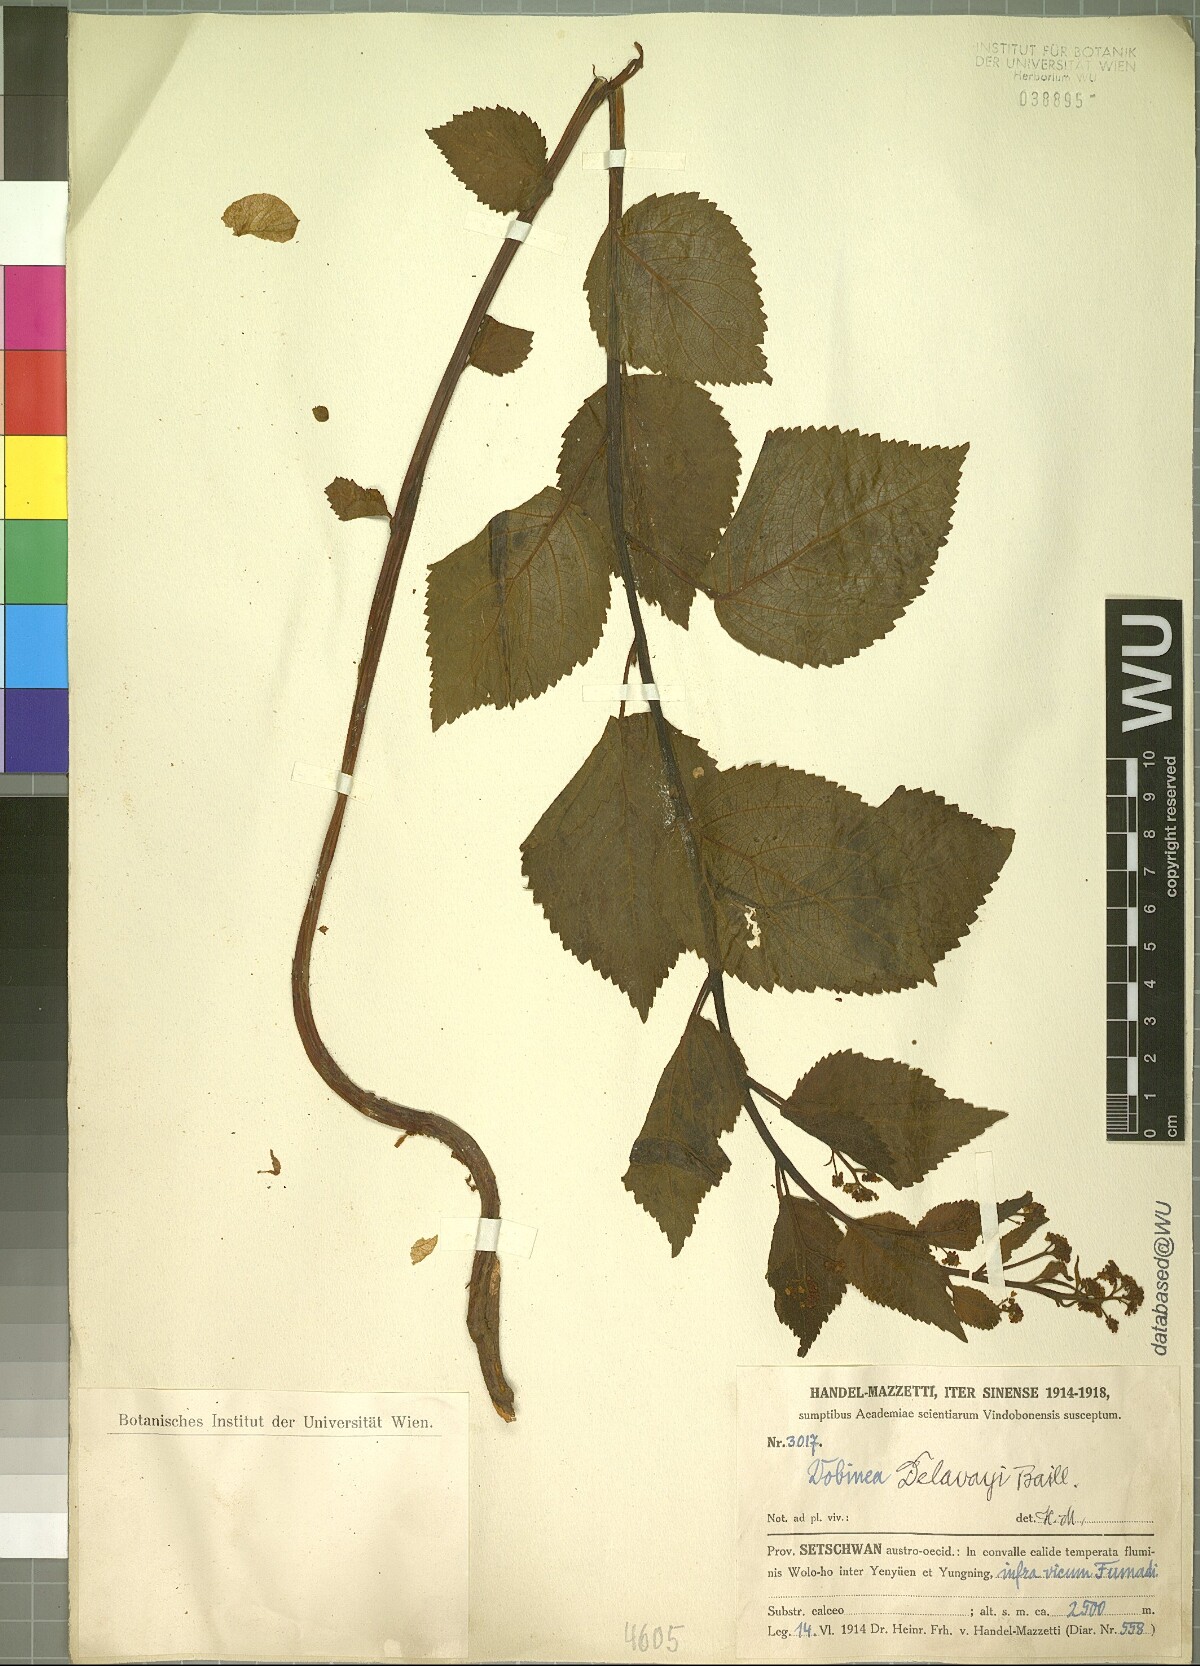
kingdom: Plantae
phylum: Tracheophyta
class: Magnoliopsida
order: Sapindales
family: Anacardiaceae
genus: Dobinea
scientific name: Dobinea delavayi
